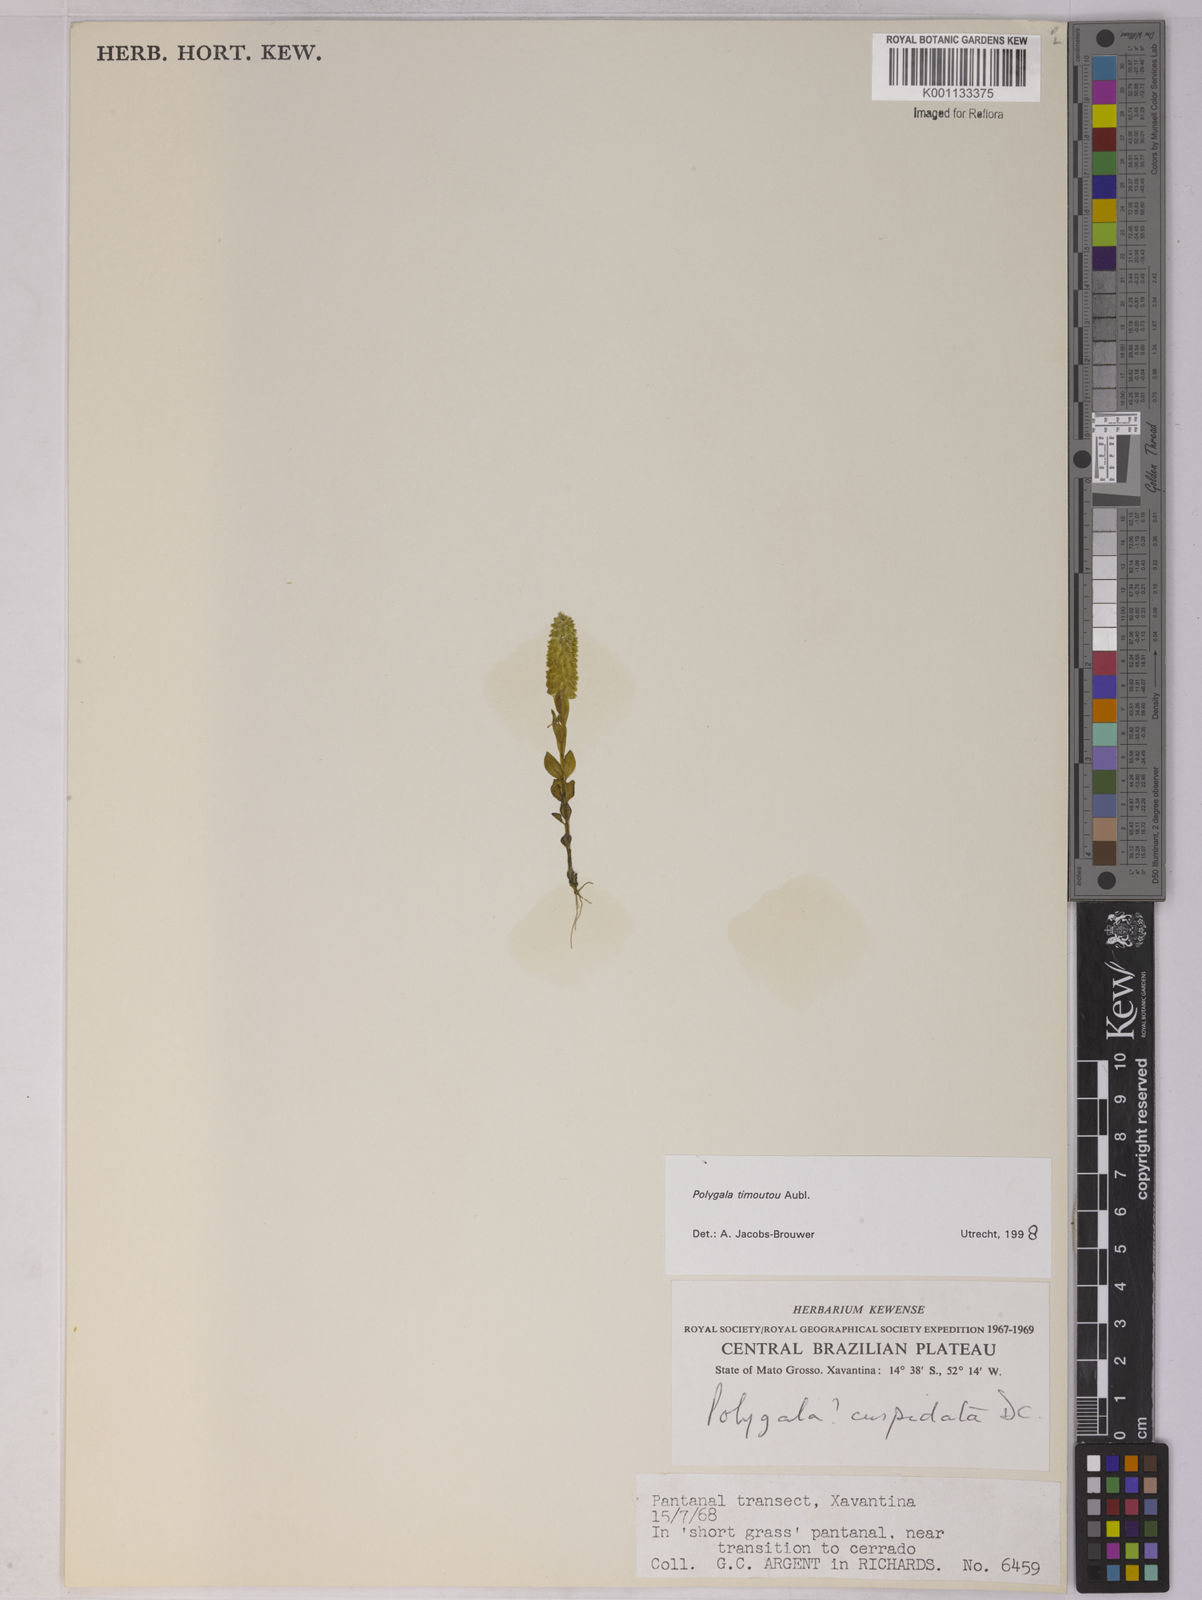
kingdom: Plantae
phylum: Tracheophyta
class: Magnoliopsida
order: Fabales
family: Polygalaceae
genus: Polygala
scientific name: Polygala timoutoides
